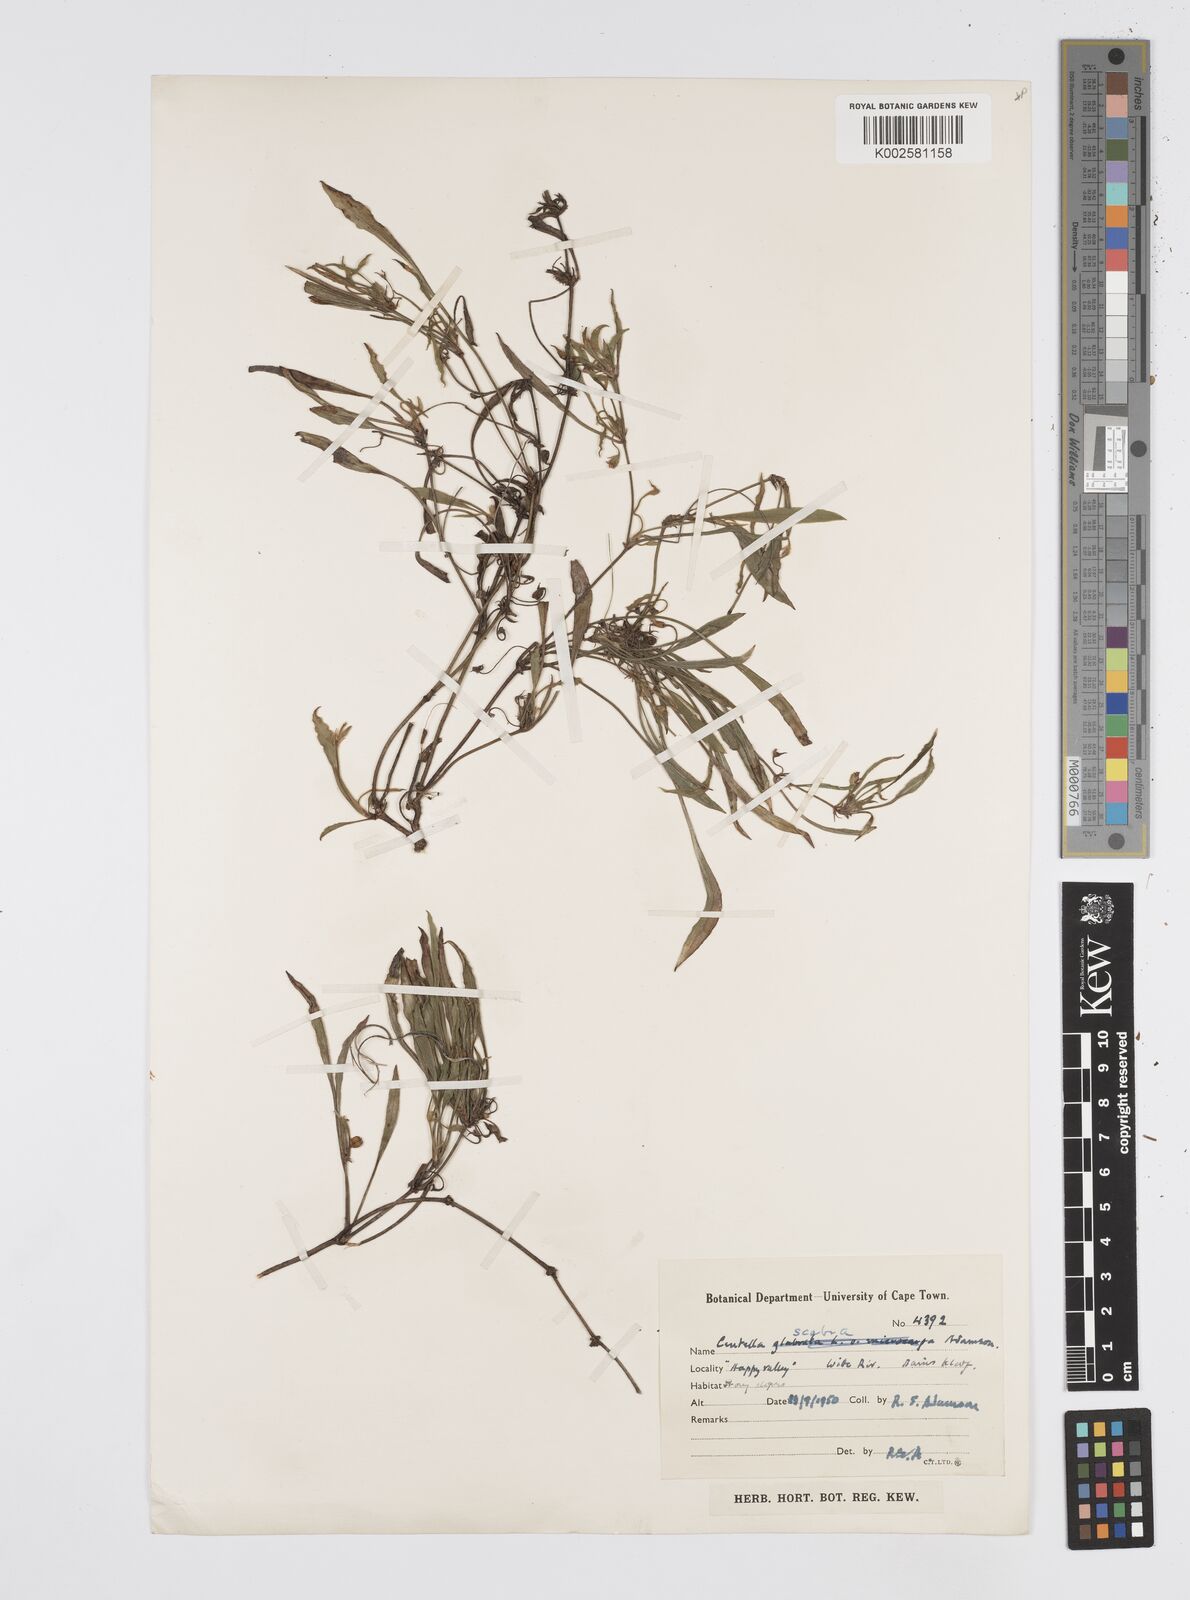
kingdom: Plantae
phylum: Tracheophyta
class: Magnoliopsida
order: Apiales
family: Apiaceae
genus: Centella
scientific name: Centella scabra
